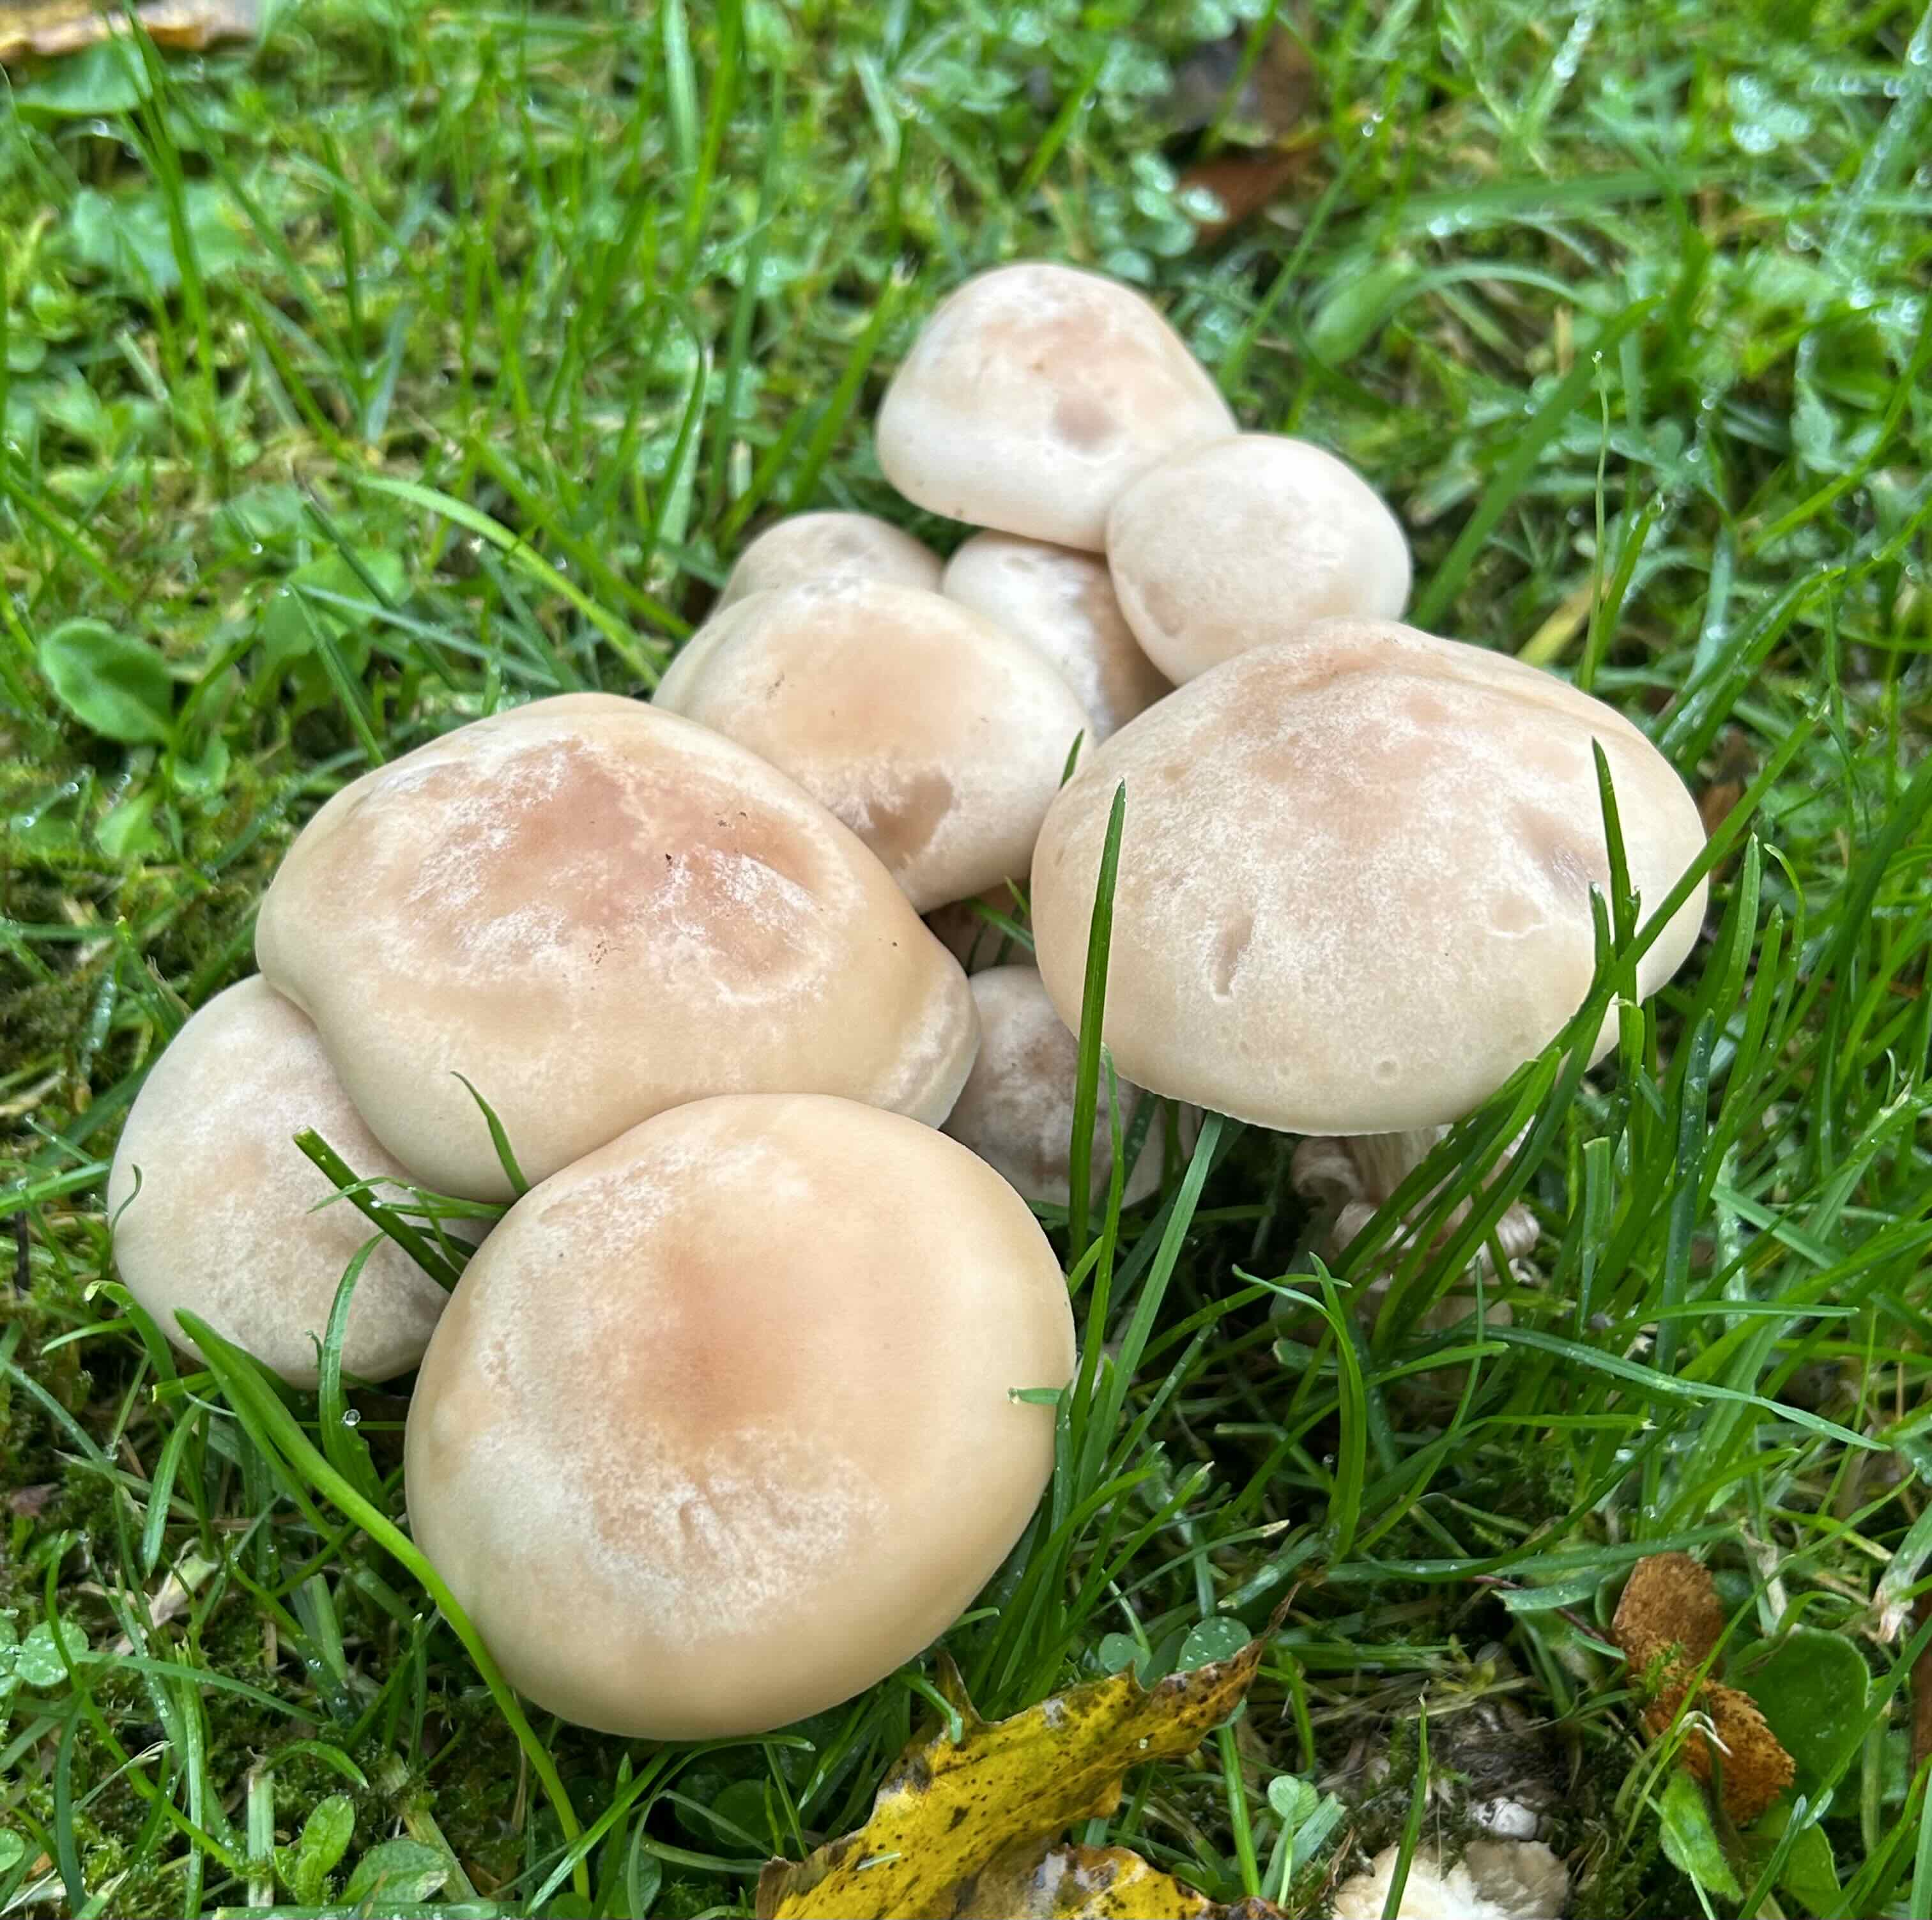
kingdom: Fungi
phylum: Basidiomycota
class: Agaricomycetes
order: Agaricales
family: Tricholomataceae
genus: Lepista
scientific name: Lepista irina
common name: violduftende hekseringshat
